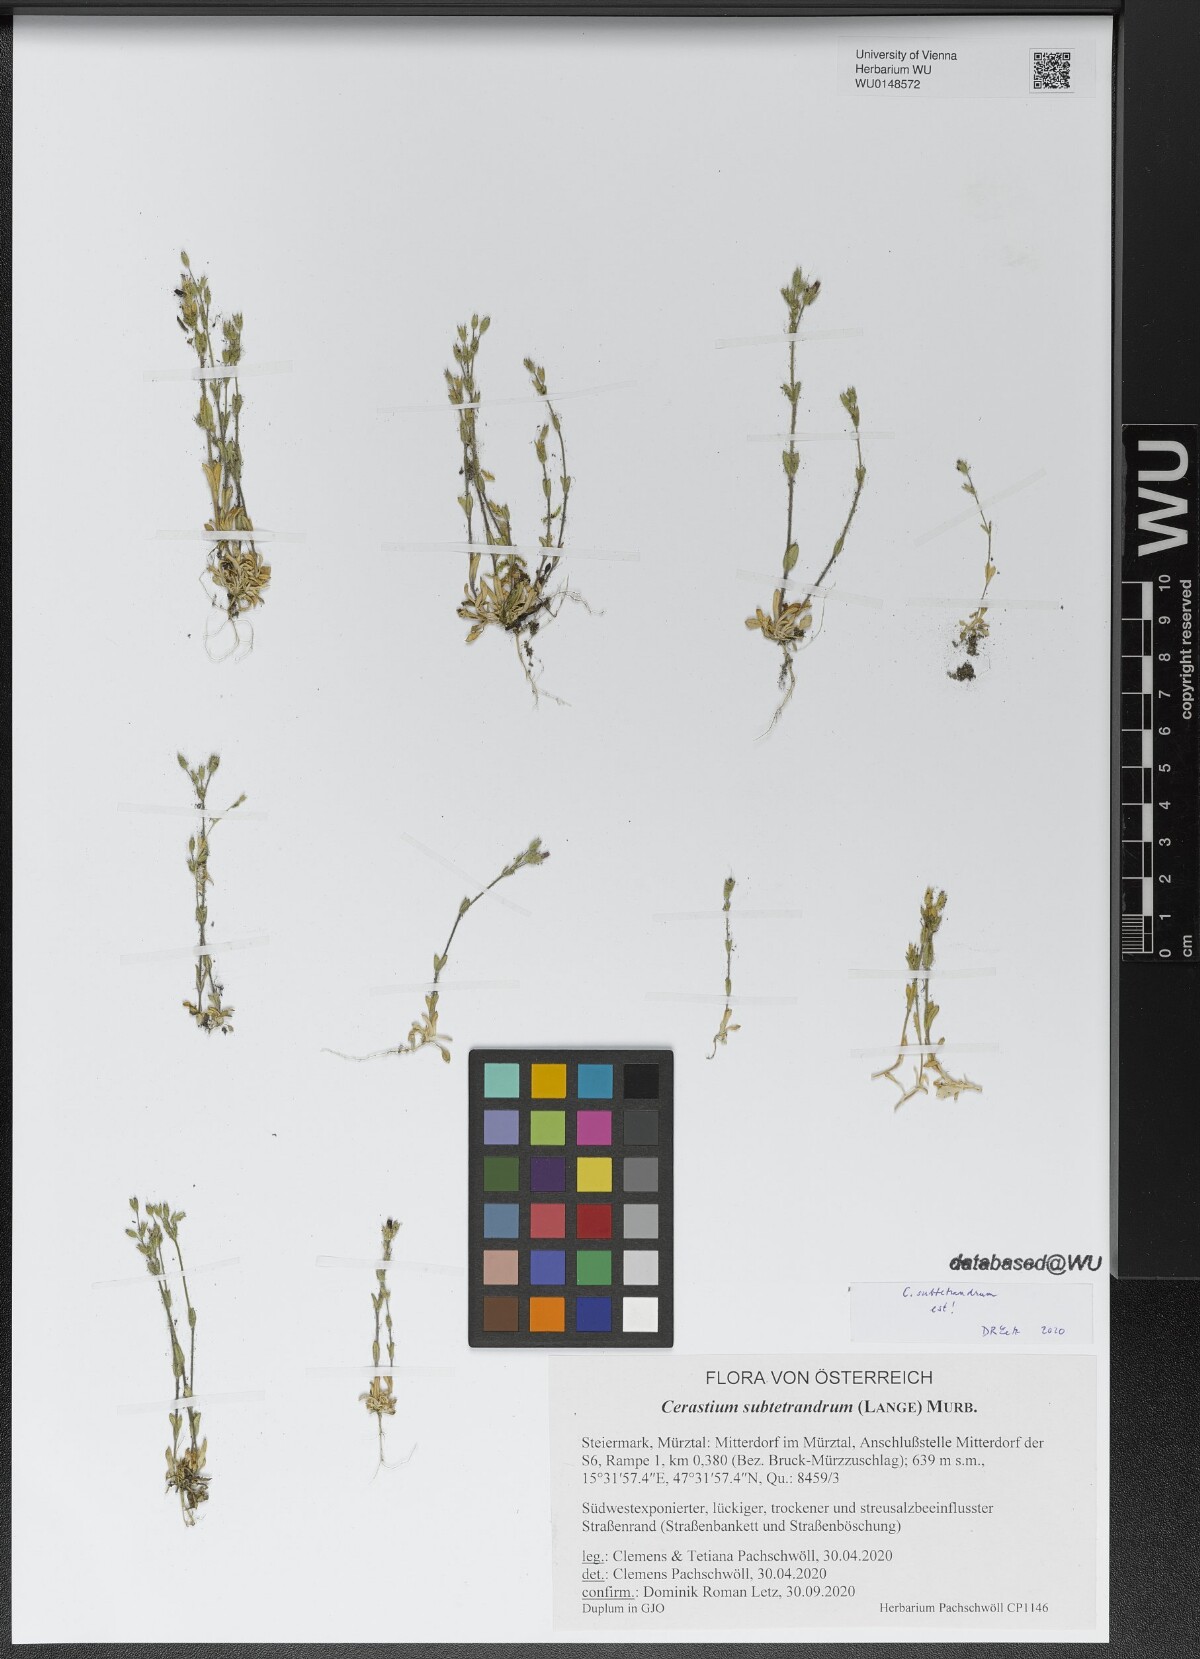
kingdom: Plantae
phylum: Tracheophyta
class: Magnoliopsida
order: Caryophyllales
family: Caryophyllaceae
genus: Cerastium
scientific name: Cerastium subtetrandrum
